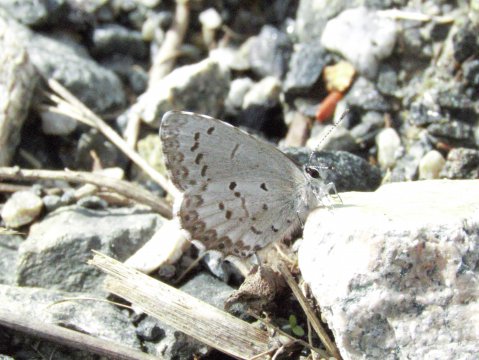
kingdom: Animalia
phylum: Arthropoda
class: Insecta
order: Lepidoptera
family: Lycaenidae
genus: Celastrina
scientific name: Celastrina lucia
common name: Northern Spring Azure
